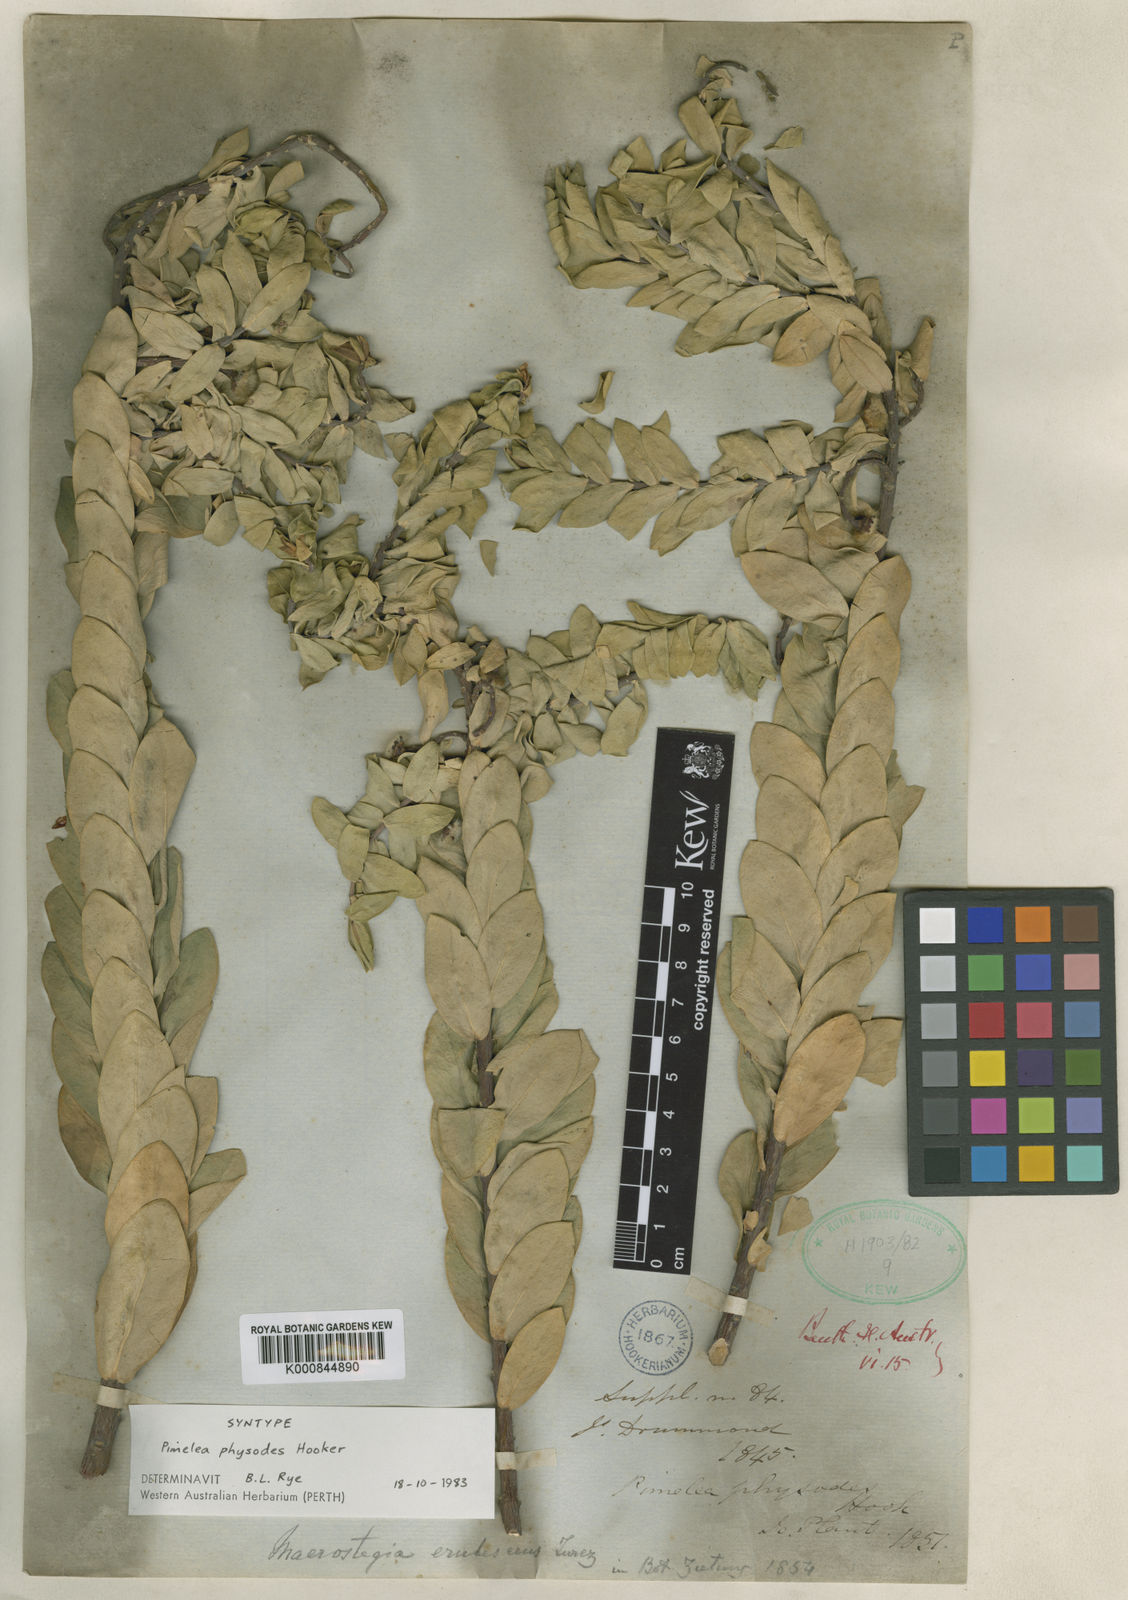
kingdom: Plantae
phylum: Tracheophyta
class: Magnoliopsida
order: Malvales
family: Thymelaeaceae
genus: Pimelea
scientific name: Pimelea physodes
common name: Qualup-bell
